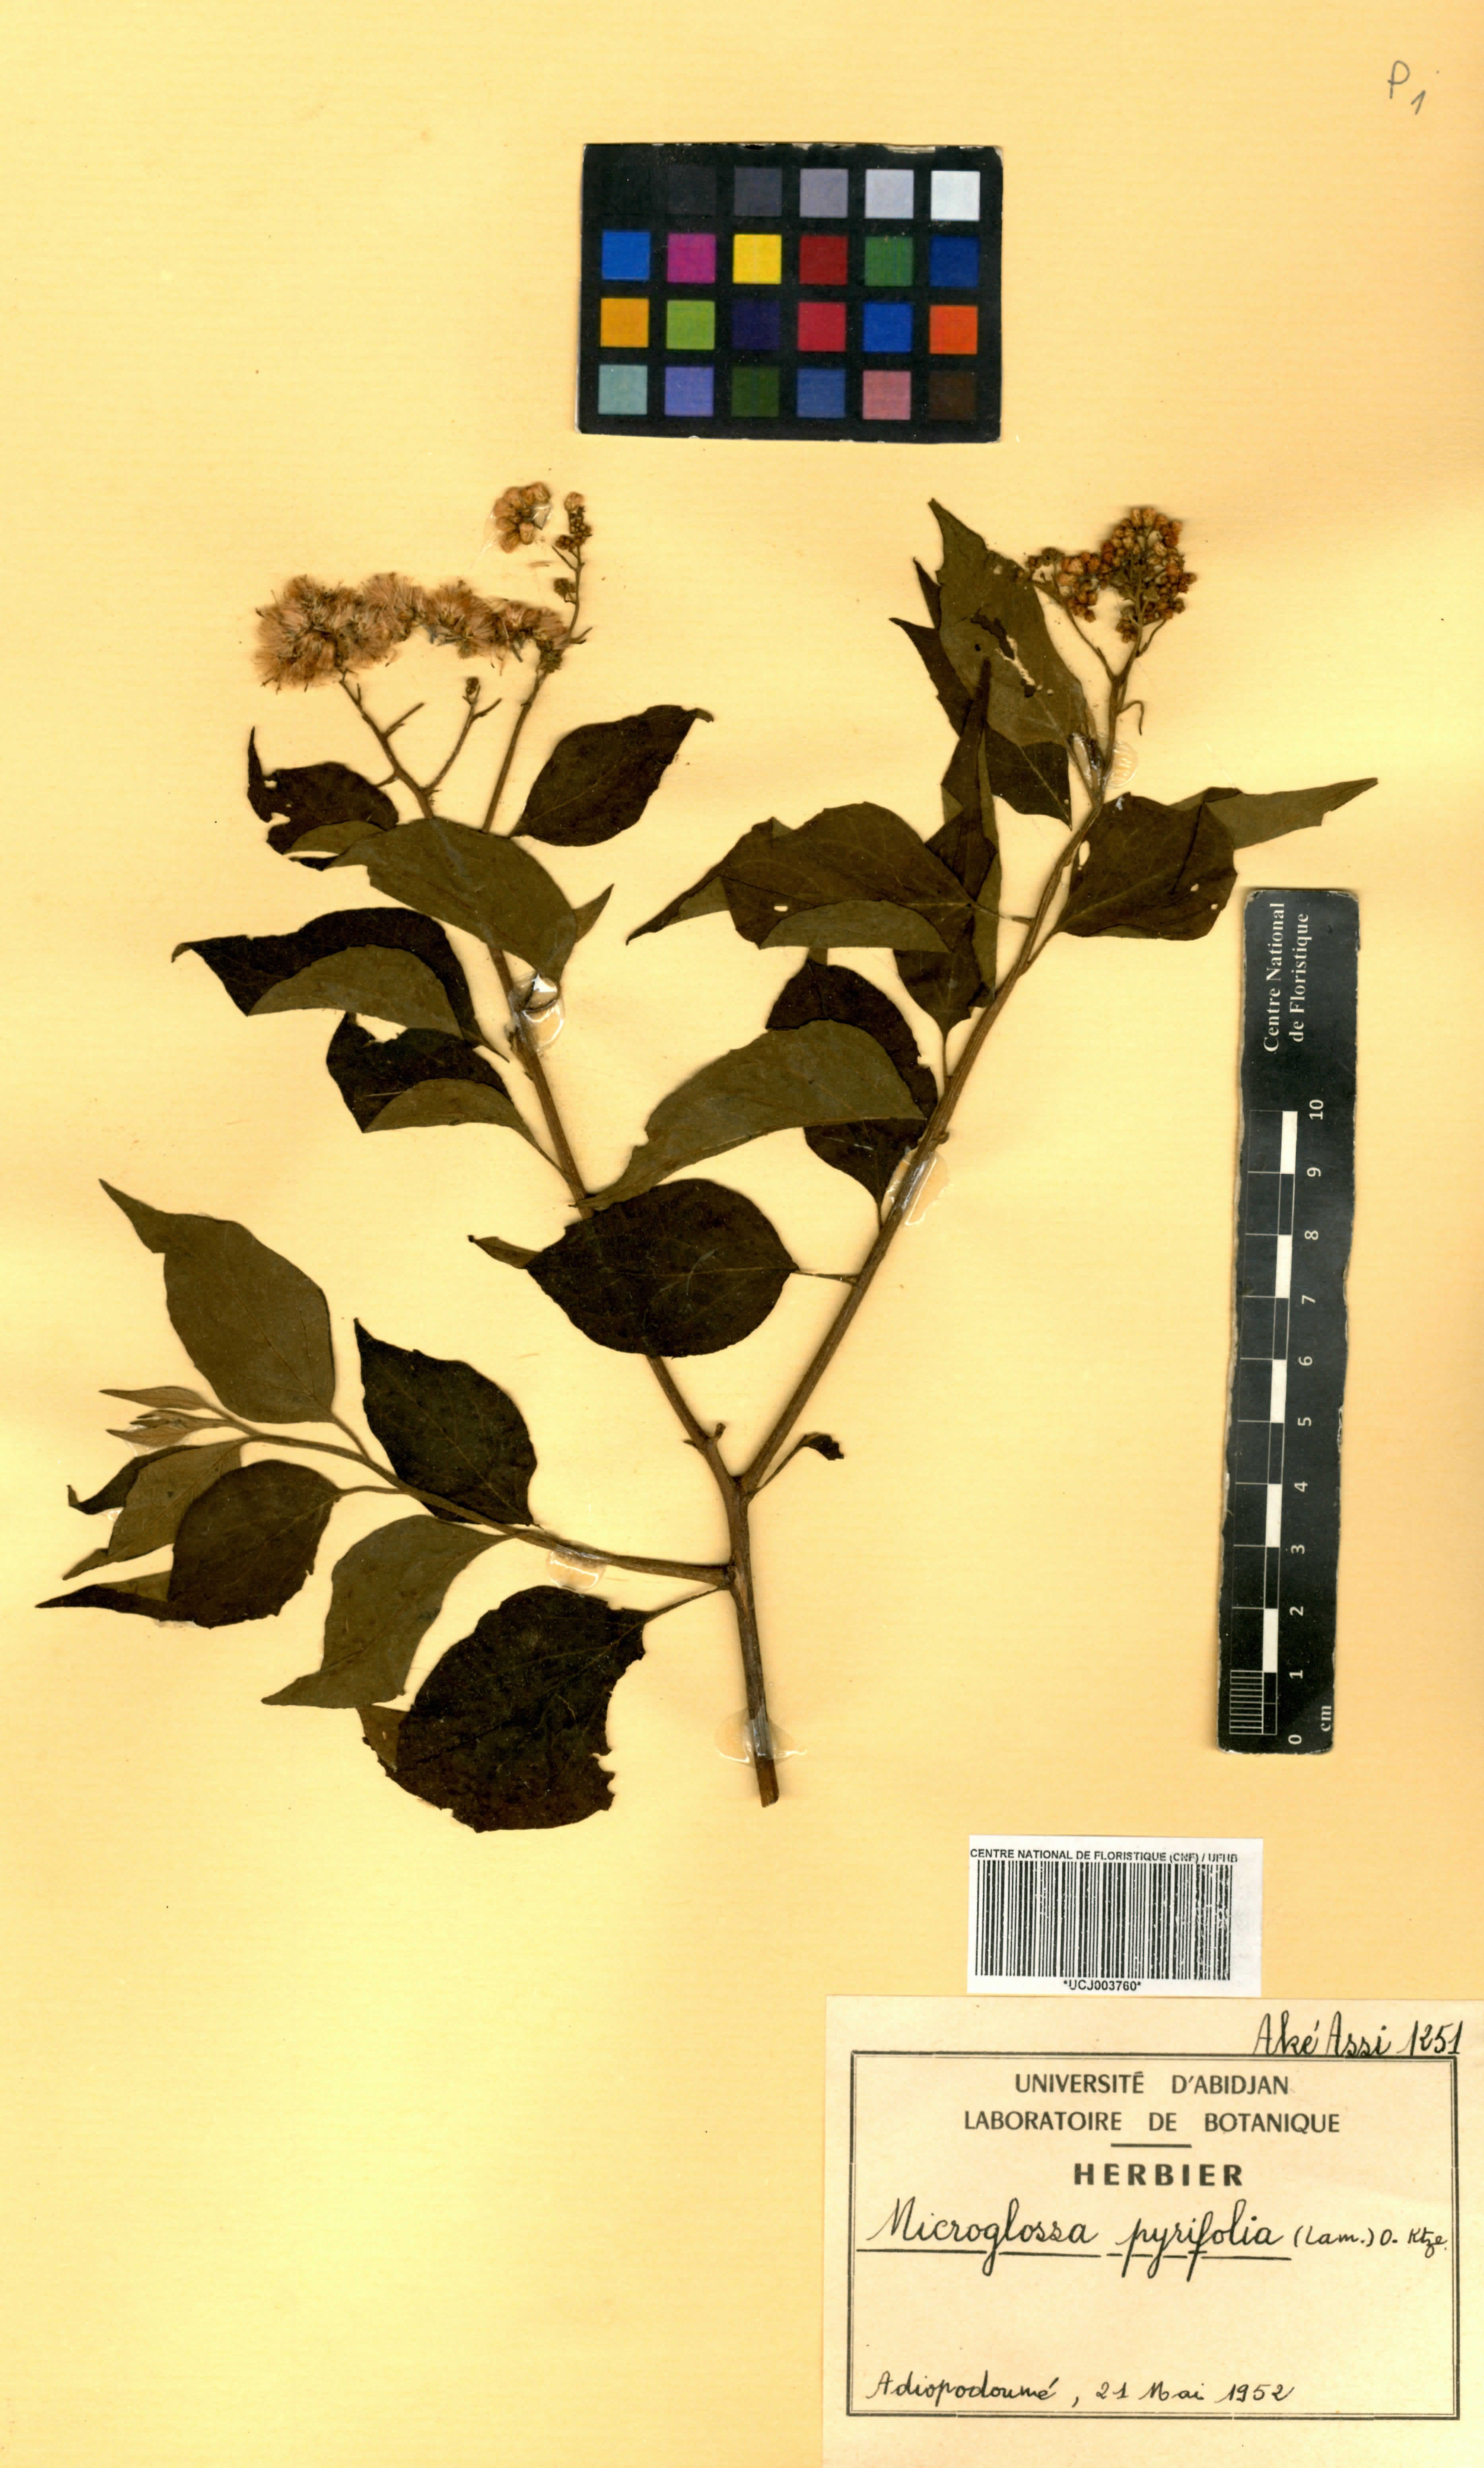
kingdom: Plantae
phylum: Tracheophyta
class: Magnoliopsida
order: Asterales
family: Asteraceae
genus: Microglossa
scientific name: Microglossa pyrifolia
